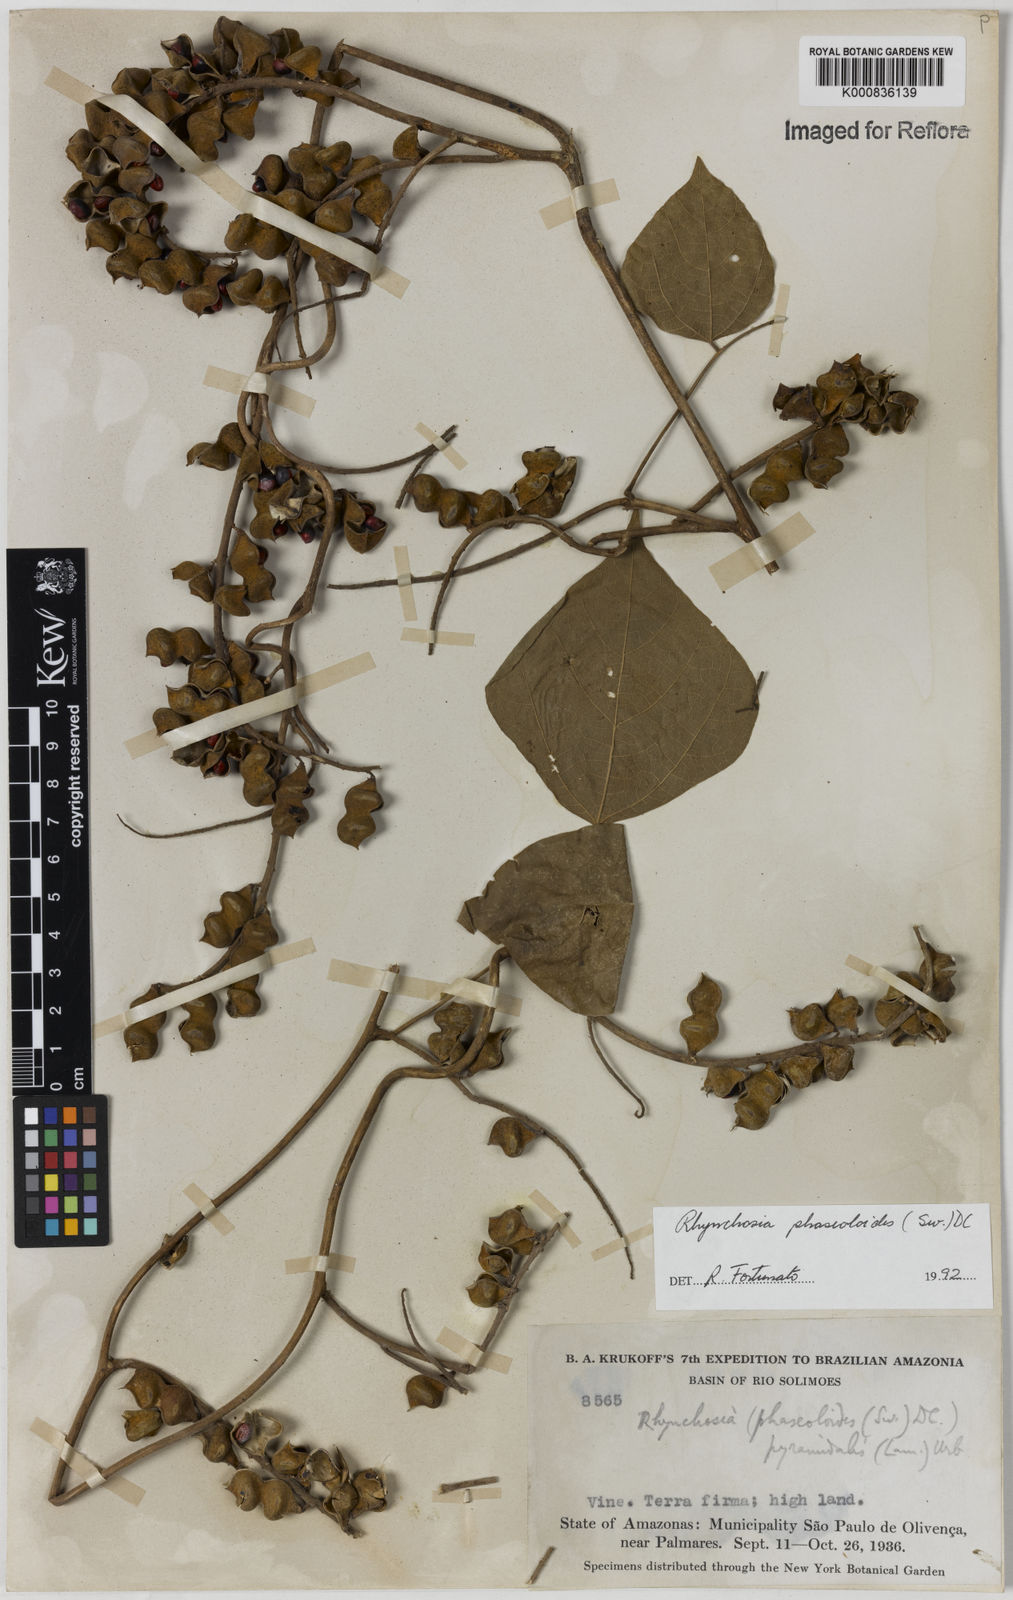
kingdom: Plantae
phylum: Tracheophyta
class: Magnoliopsida
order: Fabales
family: Fabaceae
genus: Rhynchosia
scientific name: Rhynchosia phaseoloides
